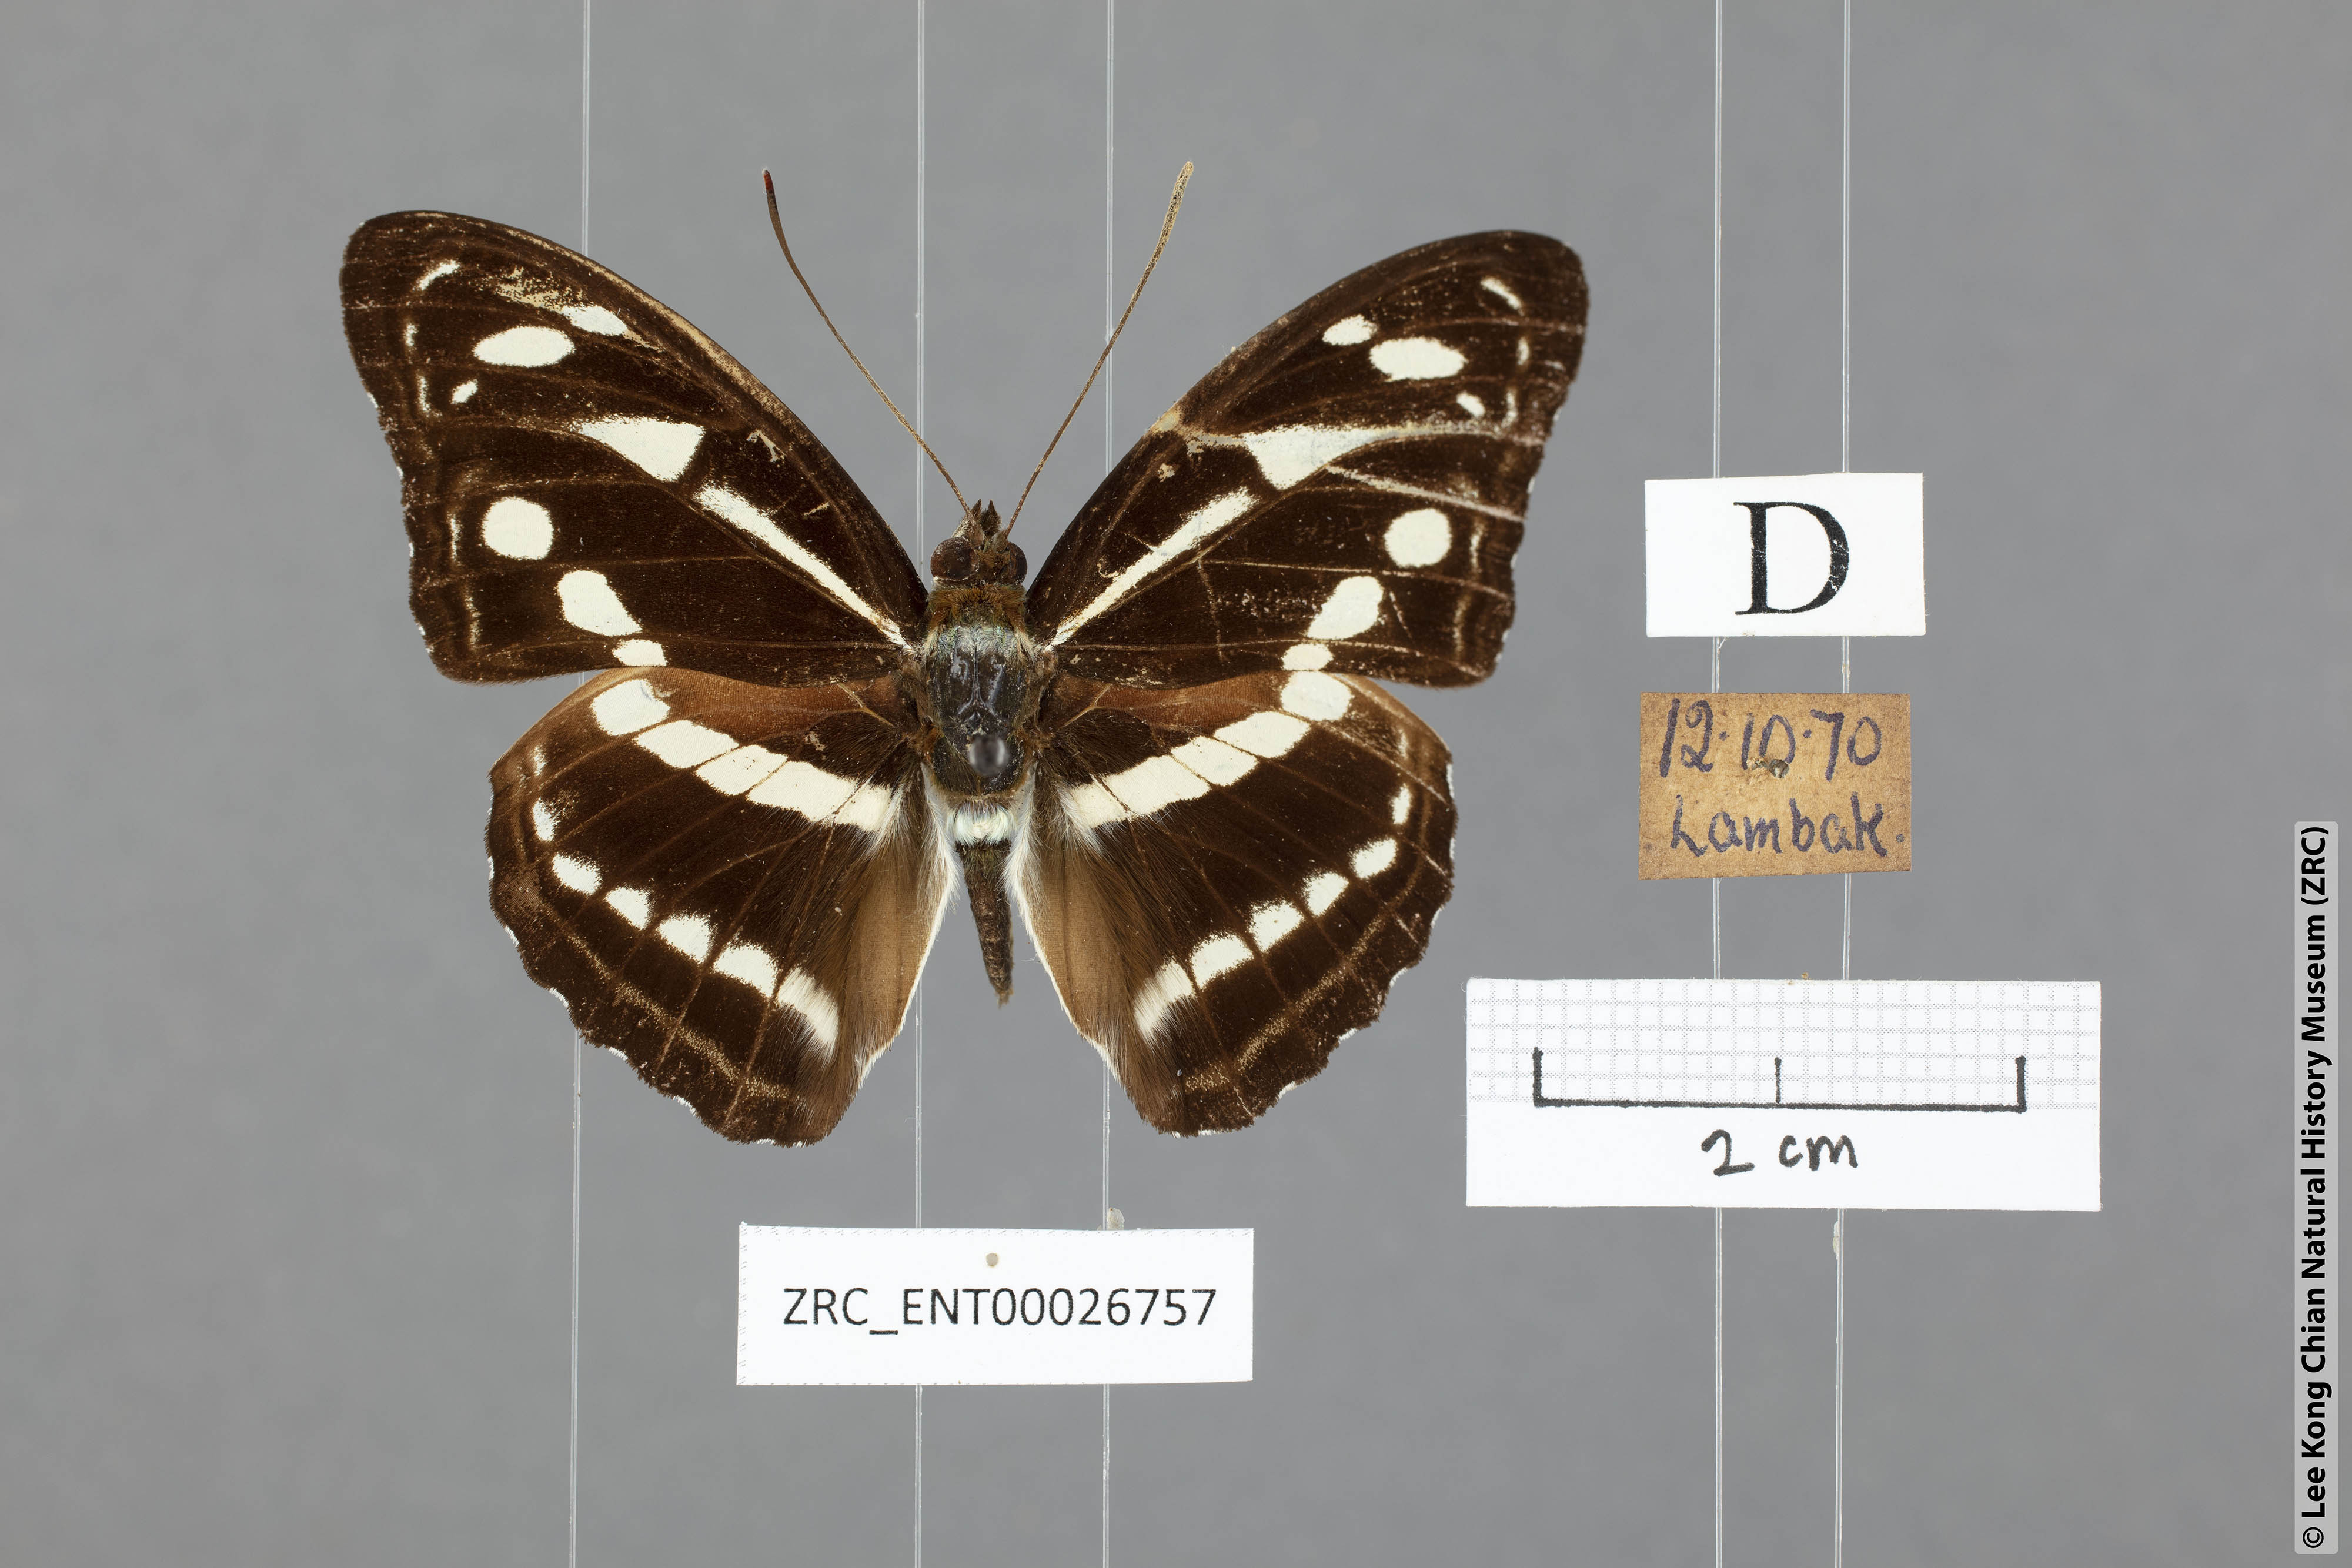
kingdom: Animalia
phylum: Arthropoda
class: Insecta
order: Lepidoptera
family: Nymphalidae
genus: Parathyma
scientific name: Parathyma kanwa
